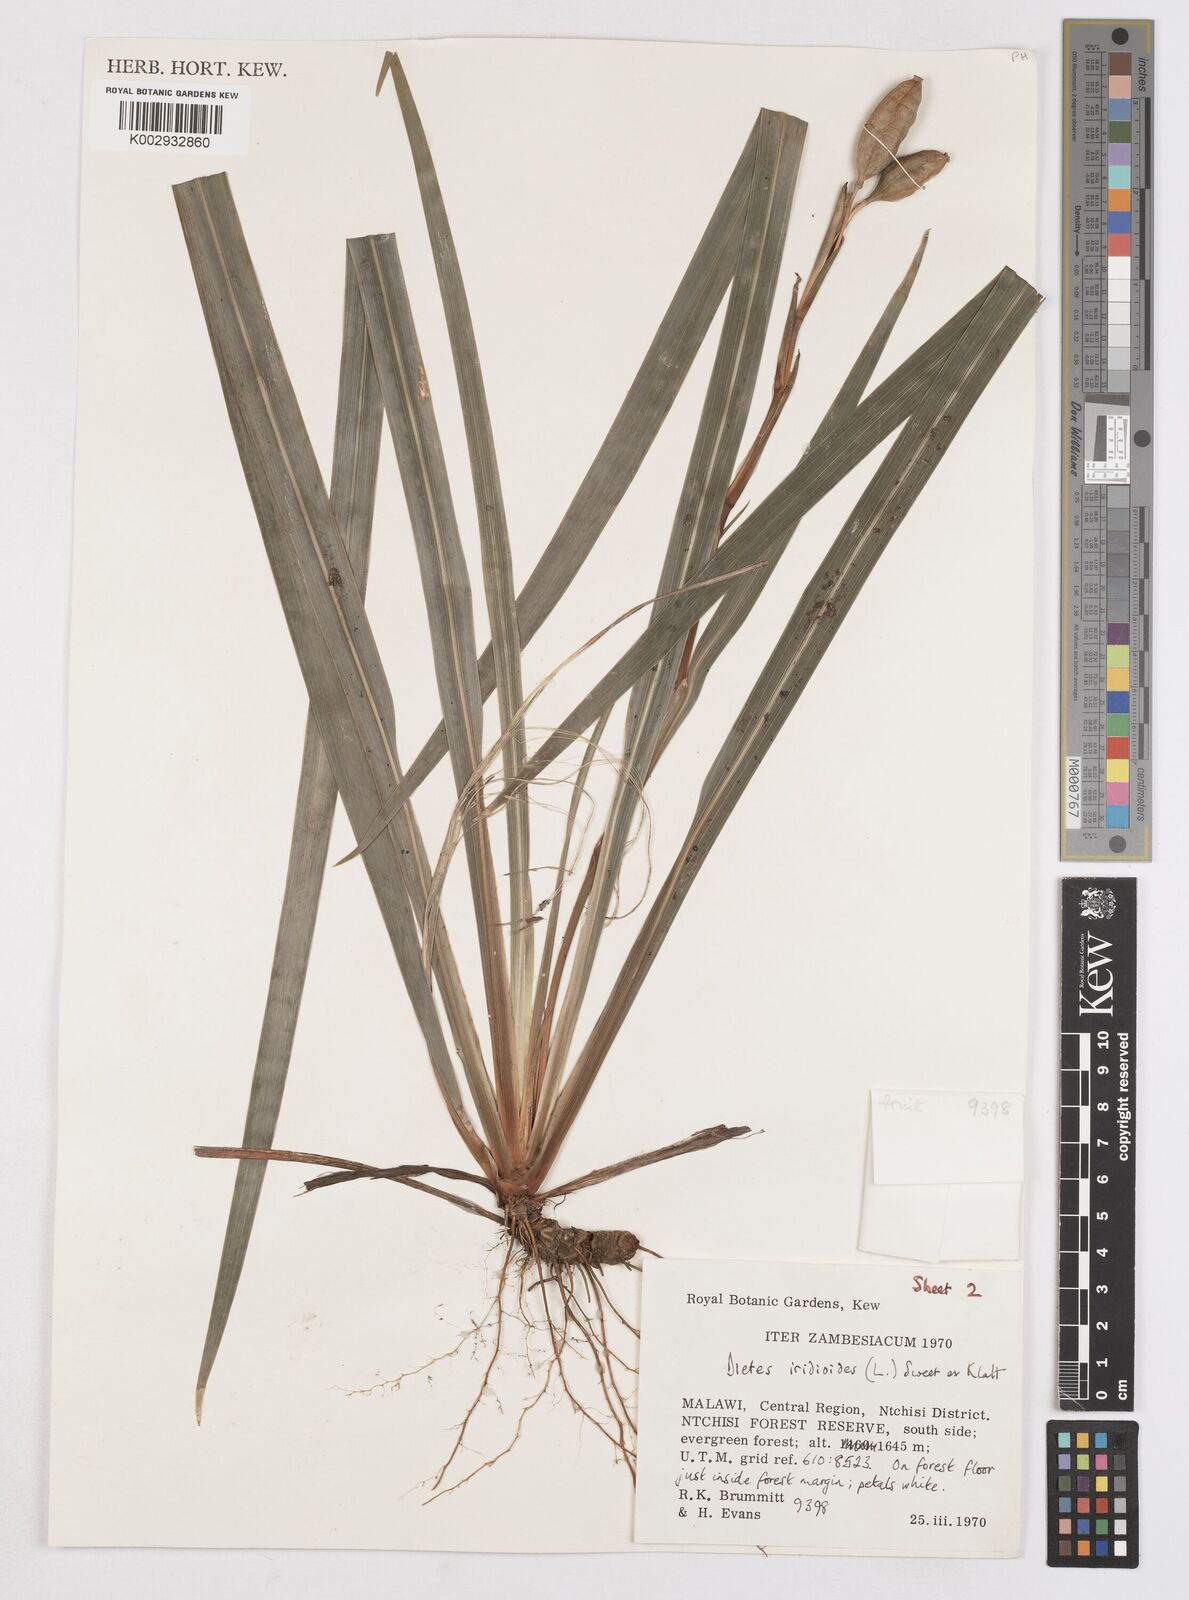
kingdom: Plantae
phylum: Tracheophyta
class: Liliopsida
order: Asparagales
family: Iridaceae
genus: Dietes
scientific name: Dietes iridioides
